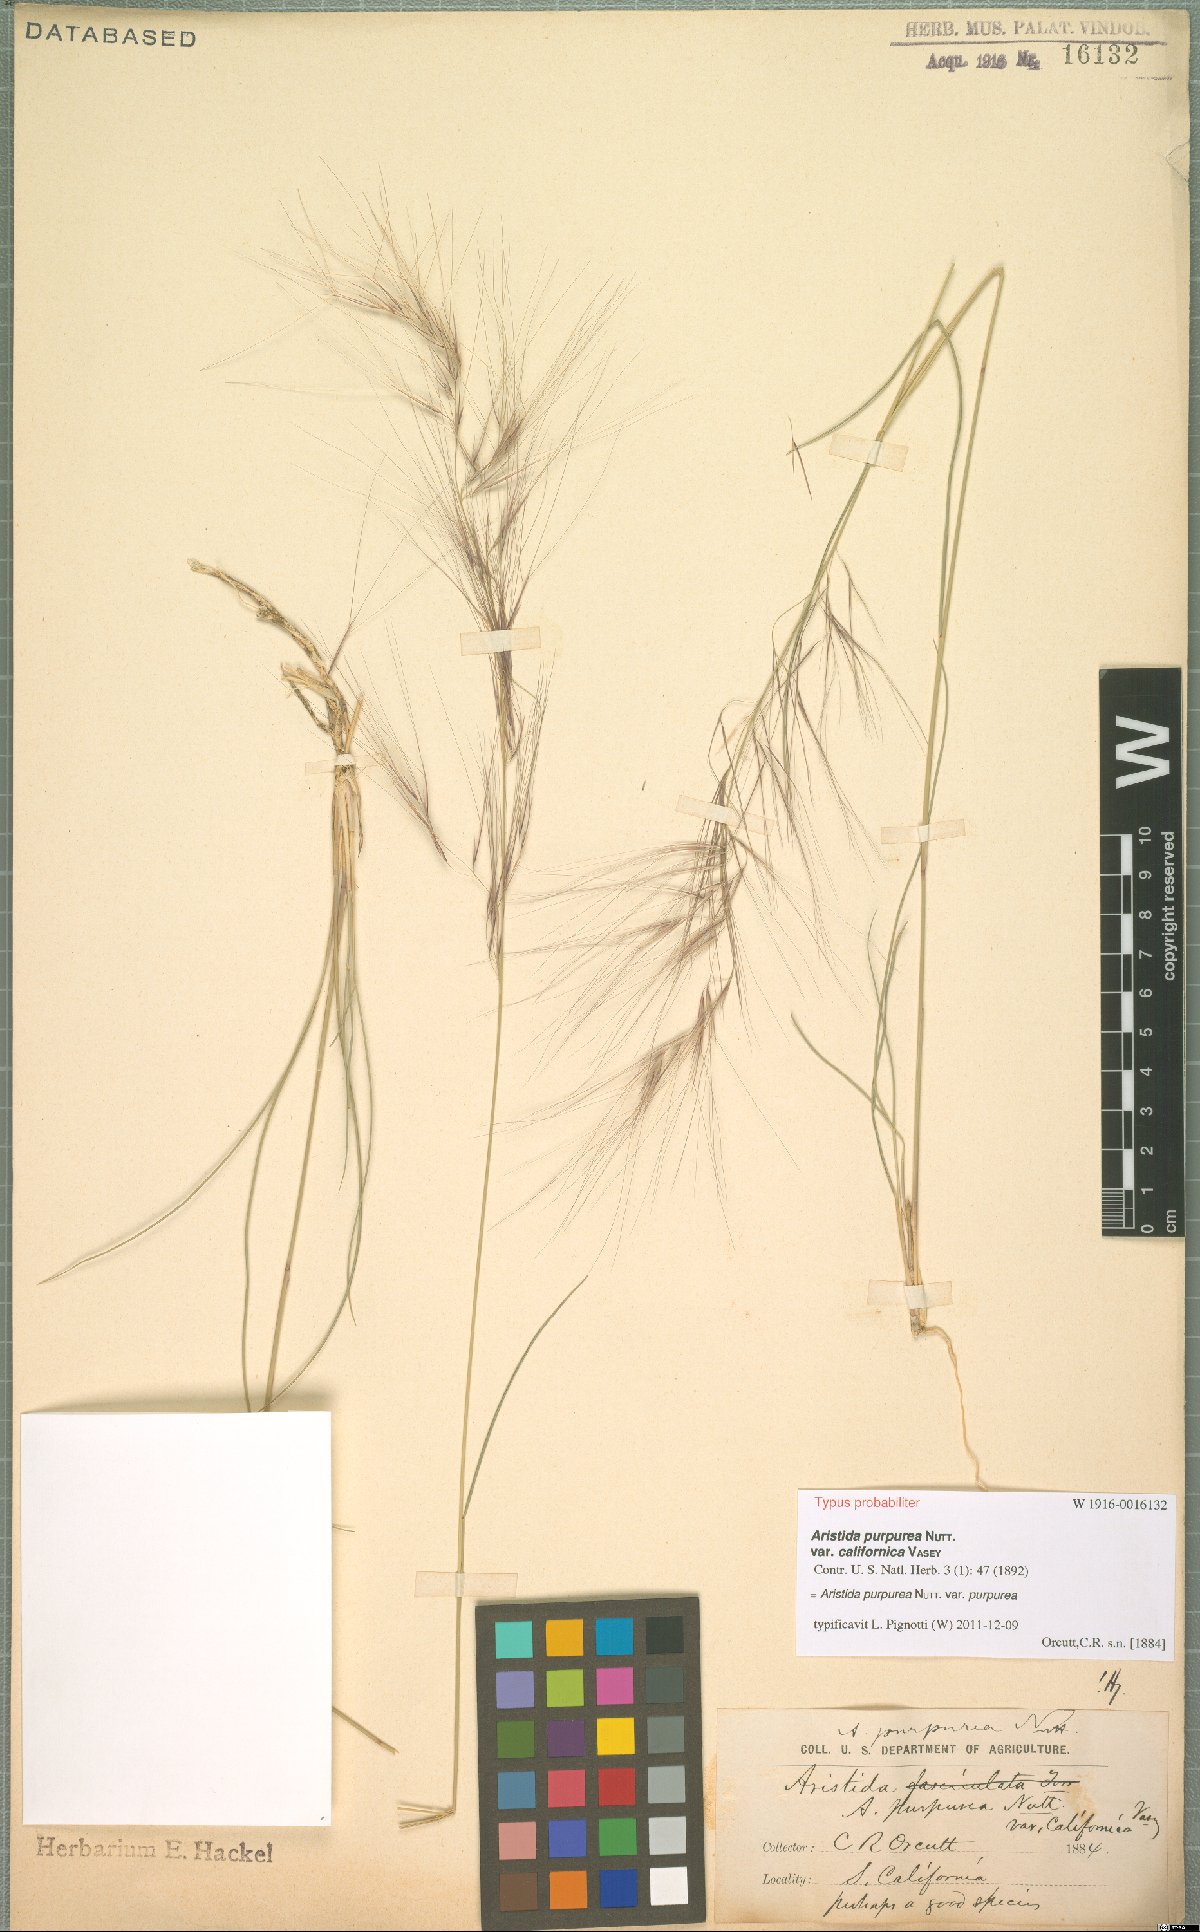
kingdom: Plantae
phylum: Tracheophyta
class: Liliopsida
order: Poales
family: Poaceae
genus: Aristida
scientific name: Aristida purpurea
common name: Purple threeawn
